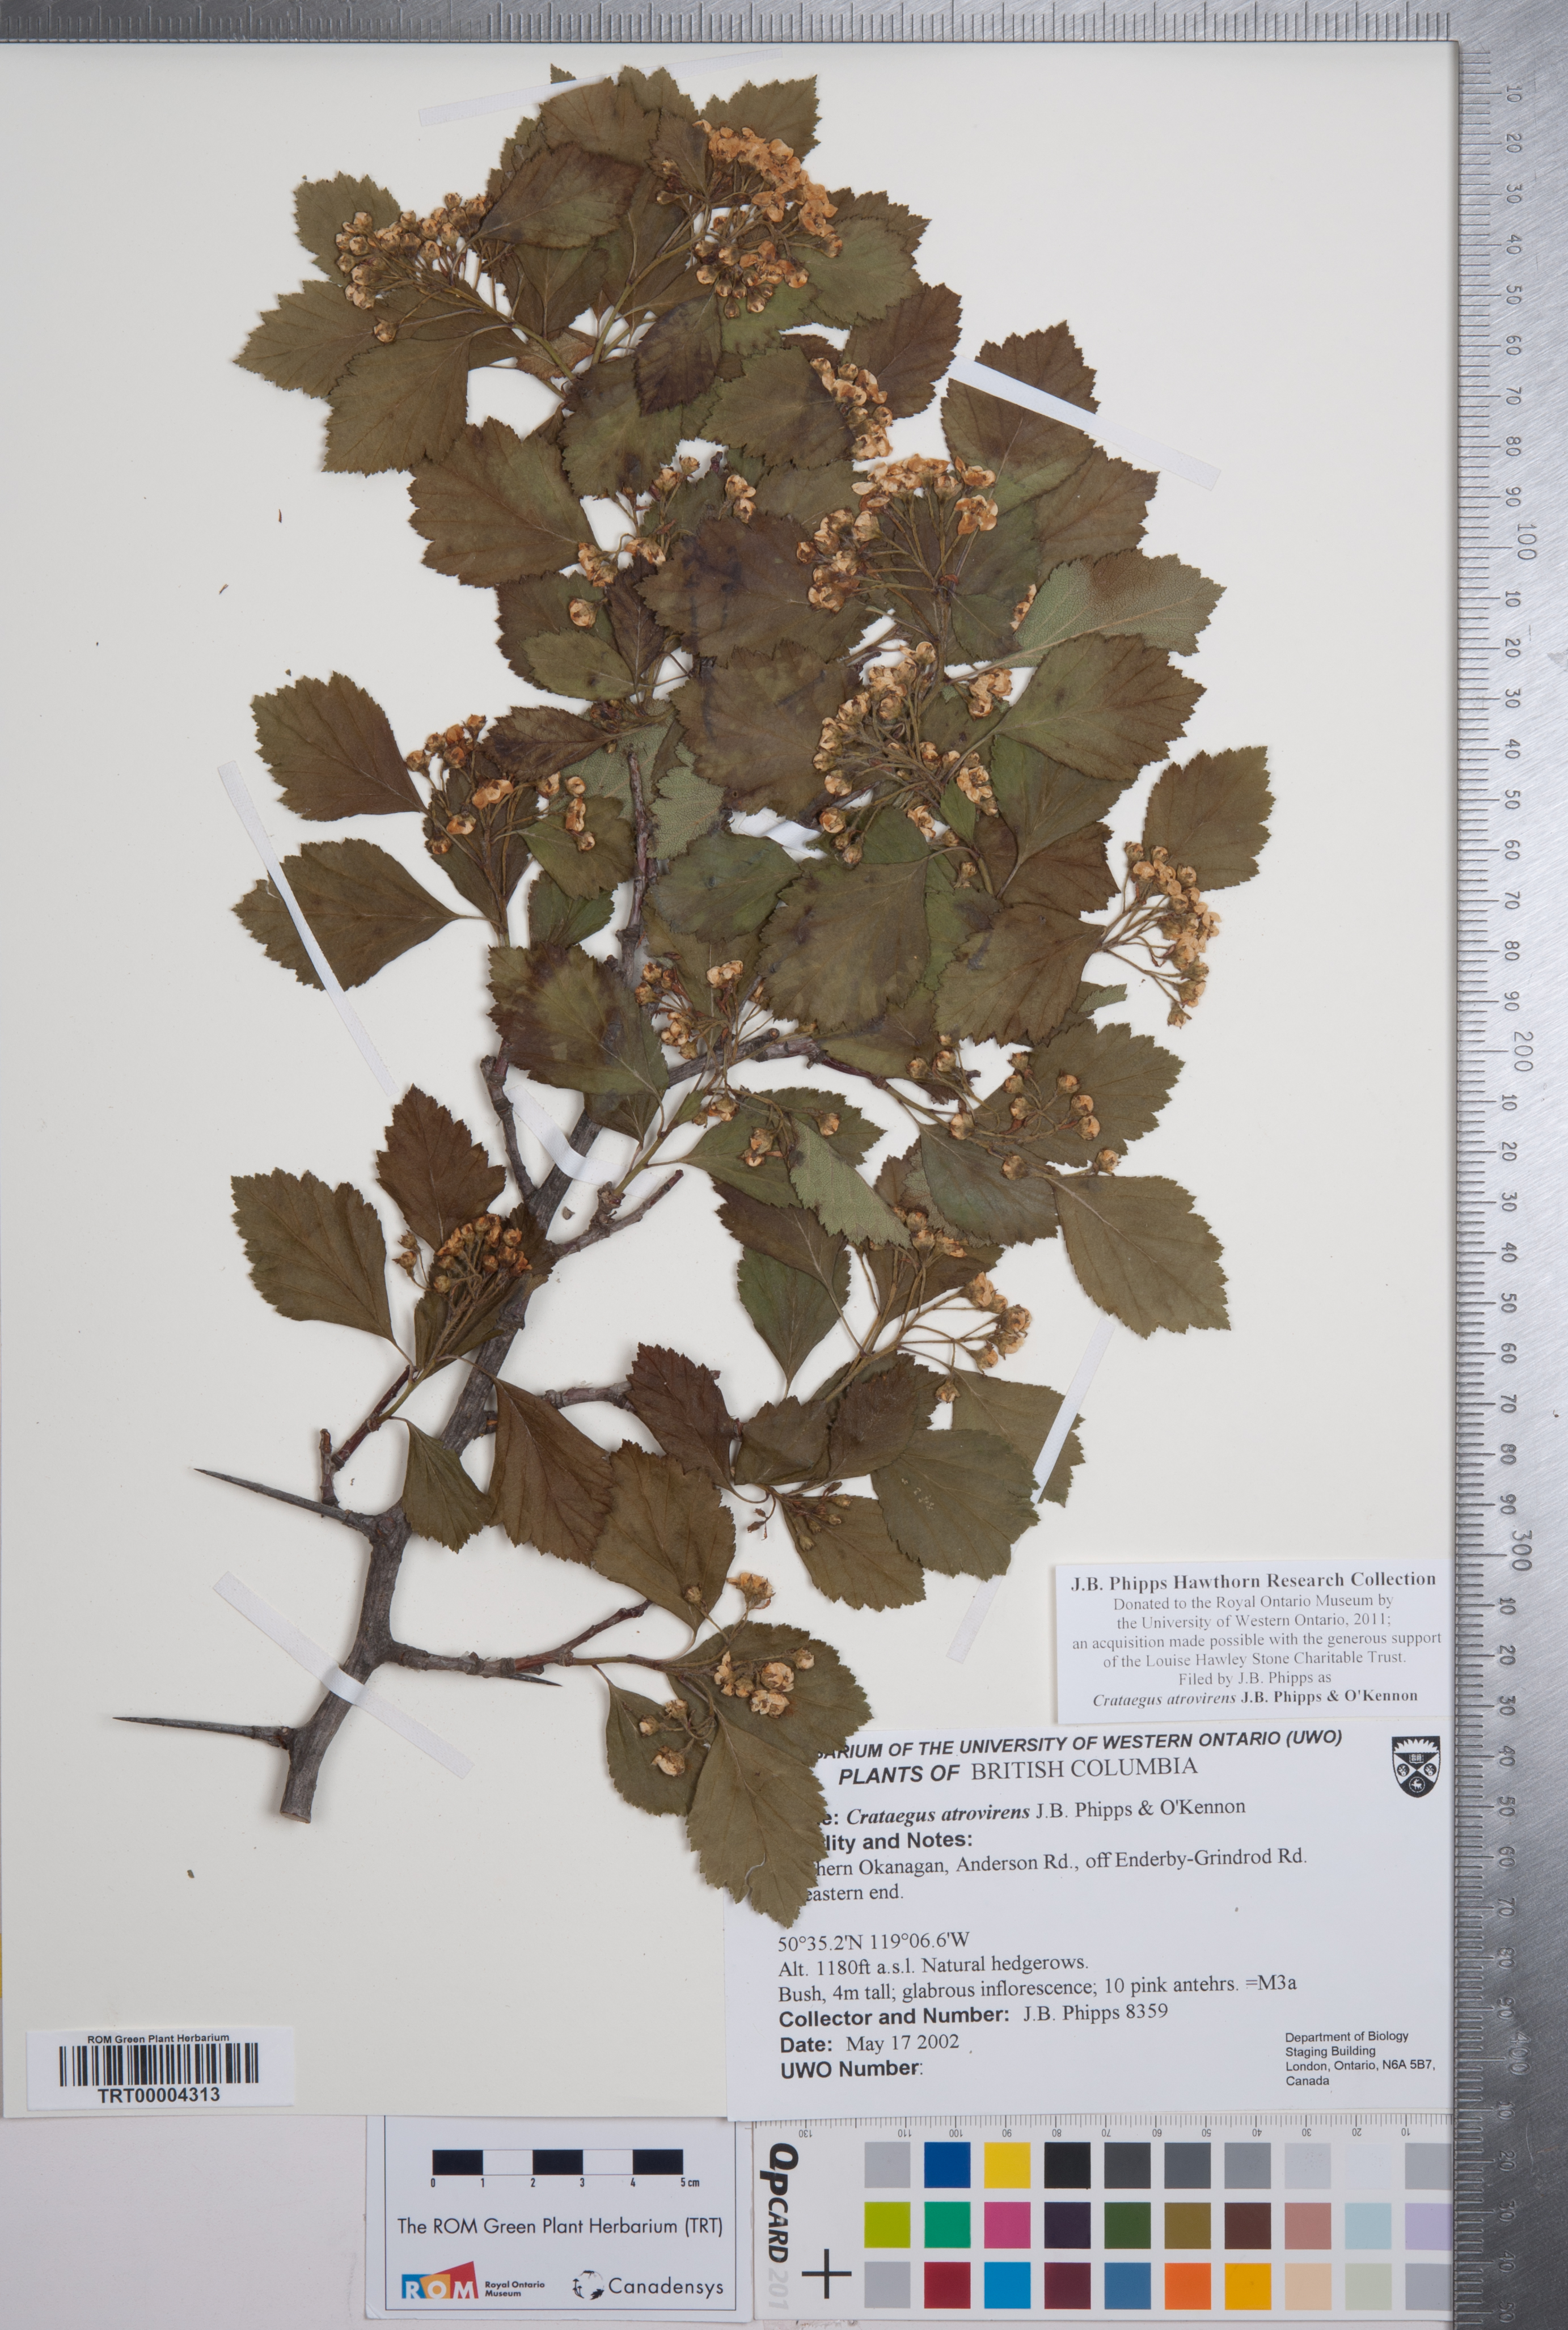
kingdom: Plantae
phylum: Tracheophyta
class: Magnoliopsida
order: Rosales
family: Rosaceae
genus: Crataegus
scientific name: Crataegus atrovirens
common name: Dark green hawthorn
